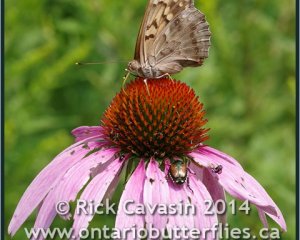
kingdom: Animalia
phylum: Arthropoda
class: Insecta
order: Lepidoptera
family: Nymphalidae
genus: Asterocampa
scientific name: Asterocampa clyton
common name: Tawny Emperor
